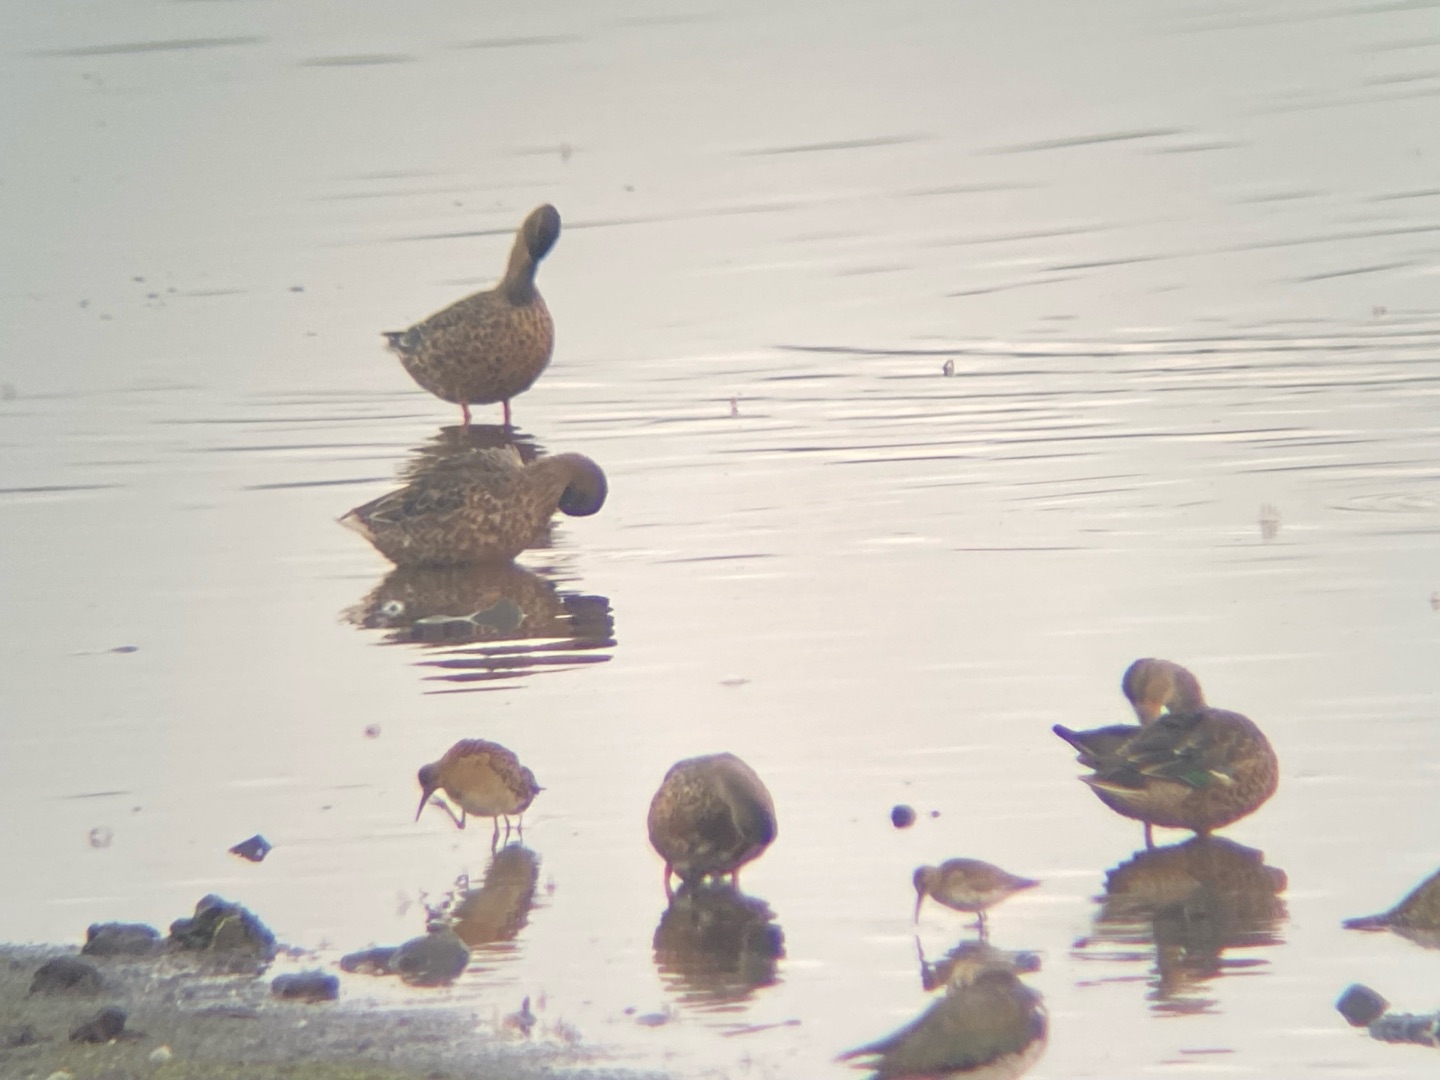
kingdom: Animalia
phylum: Chordata
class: Aves
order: Charadriiformes
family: Scolopacidae
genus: Calidris
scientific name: Calidris ferruginea
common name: Krumnæbbet ryle
